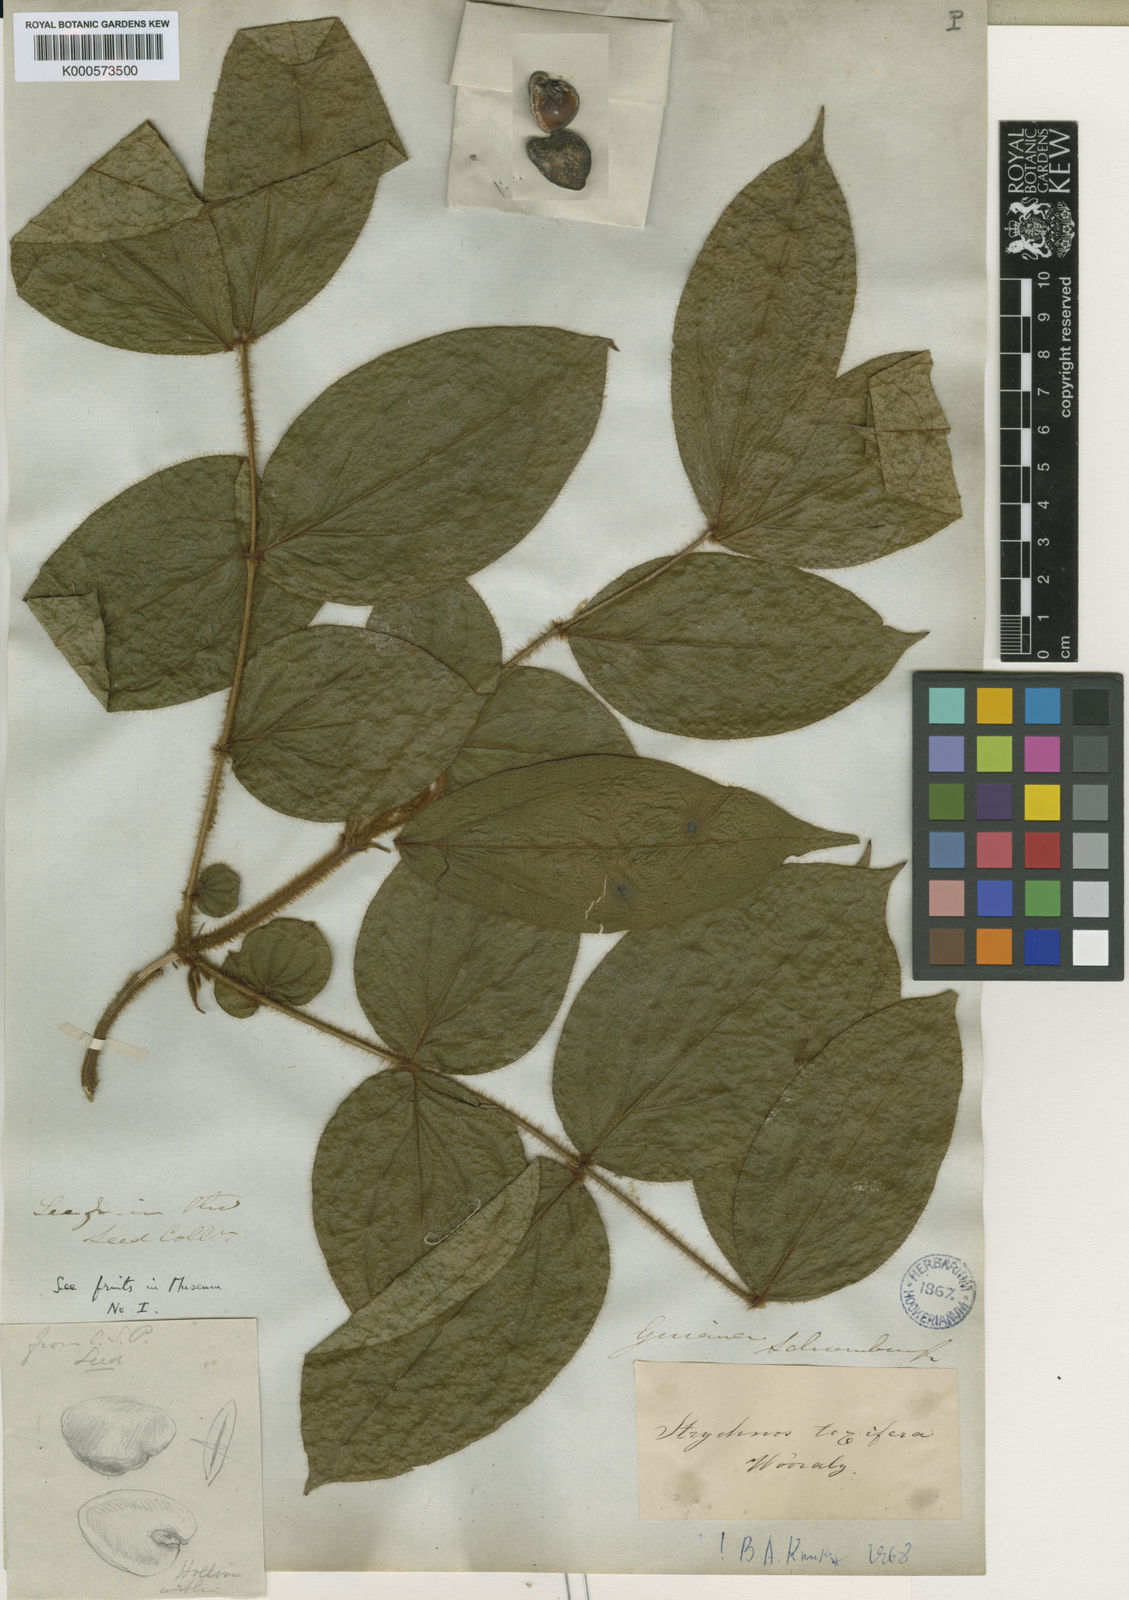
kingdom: Plantae
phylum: Tracheophyta
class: Magnoliopsida
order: Gentianales
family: Loganiaceae
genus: Strychnos
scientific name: Strychnos
